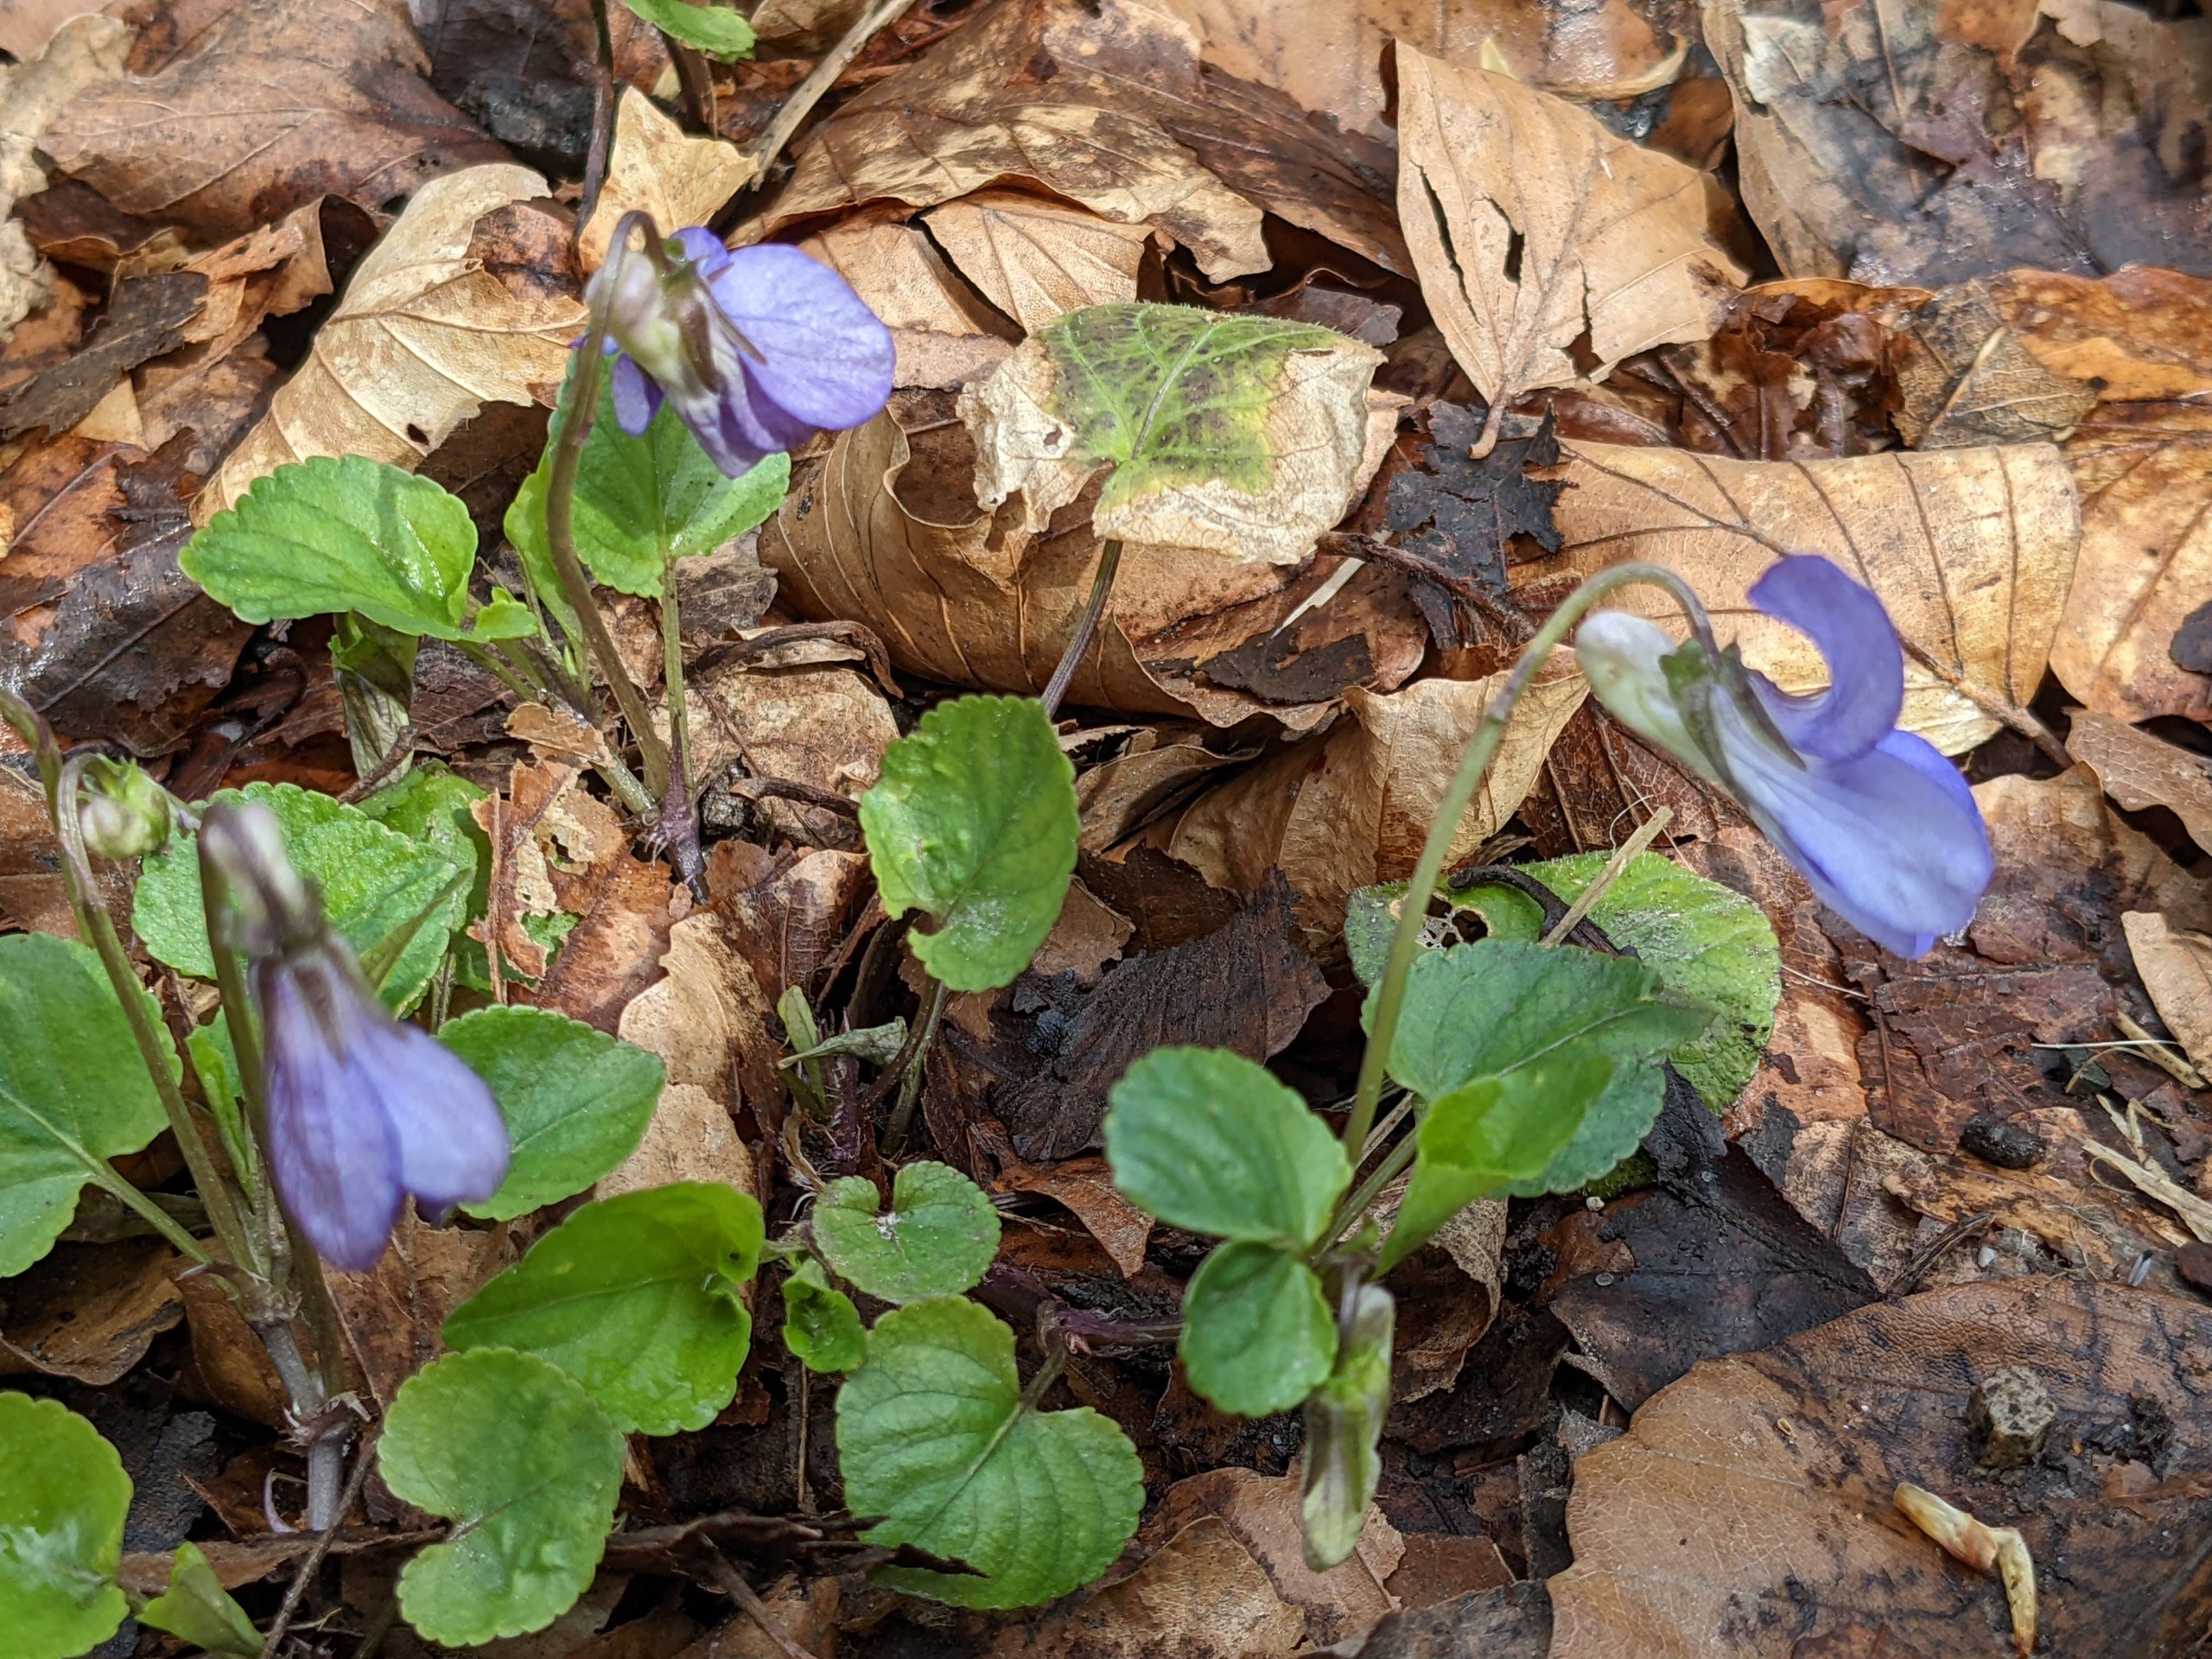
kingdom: Plantae
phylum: Tracheophyta
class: Magnoliopsida
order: Malpighiales
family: Violaceae
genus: Viola
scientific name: Viola riviniana
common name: Krat-viol
